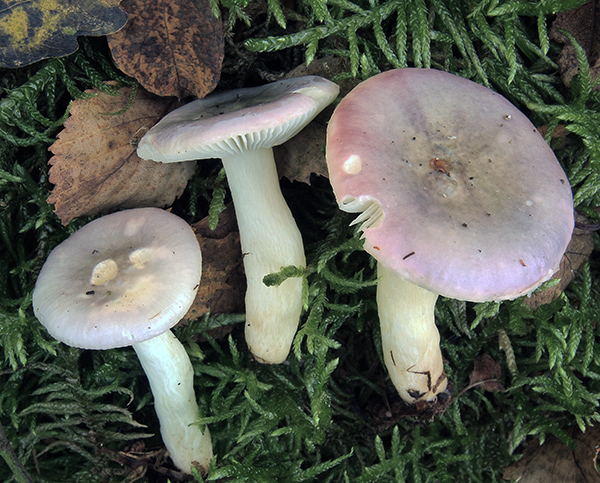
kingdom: Fungi
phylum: Basidiomycota
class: Agaricomycetes
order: Russulales
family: Russulaceae
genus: Russula
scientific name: Russula versicolor
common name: foranderlig skørhat
